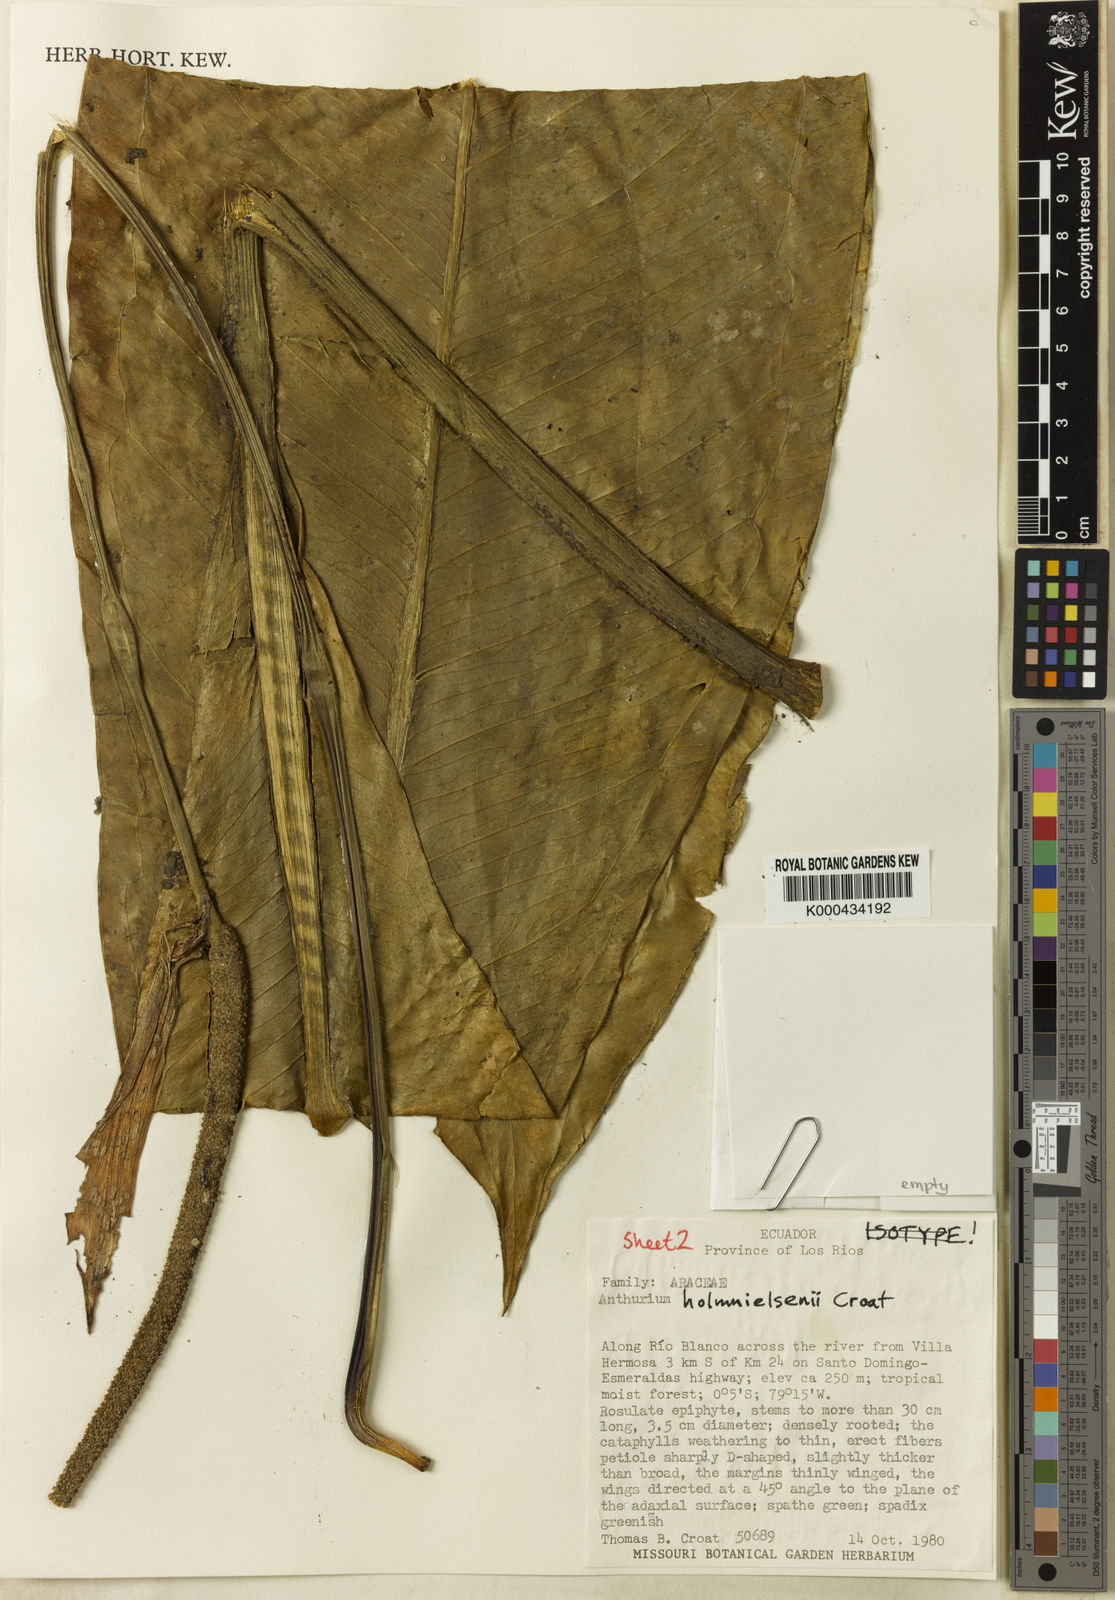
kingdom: Plantae
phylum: Tracheophyta
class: Liliopsida
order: Alismatales
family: Araceae
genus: Anthurium
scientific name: Anthurium holm-nielsenii
